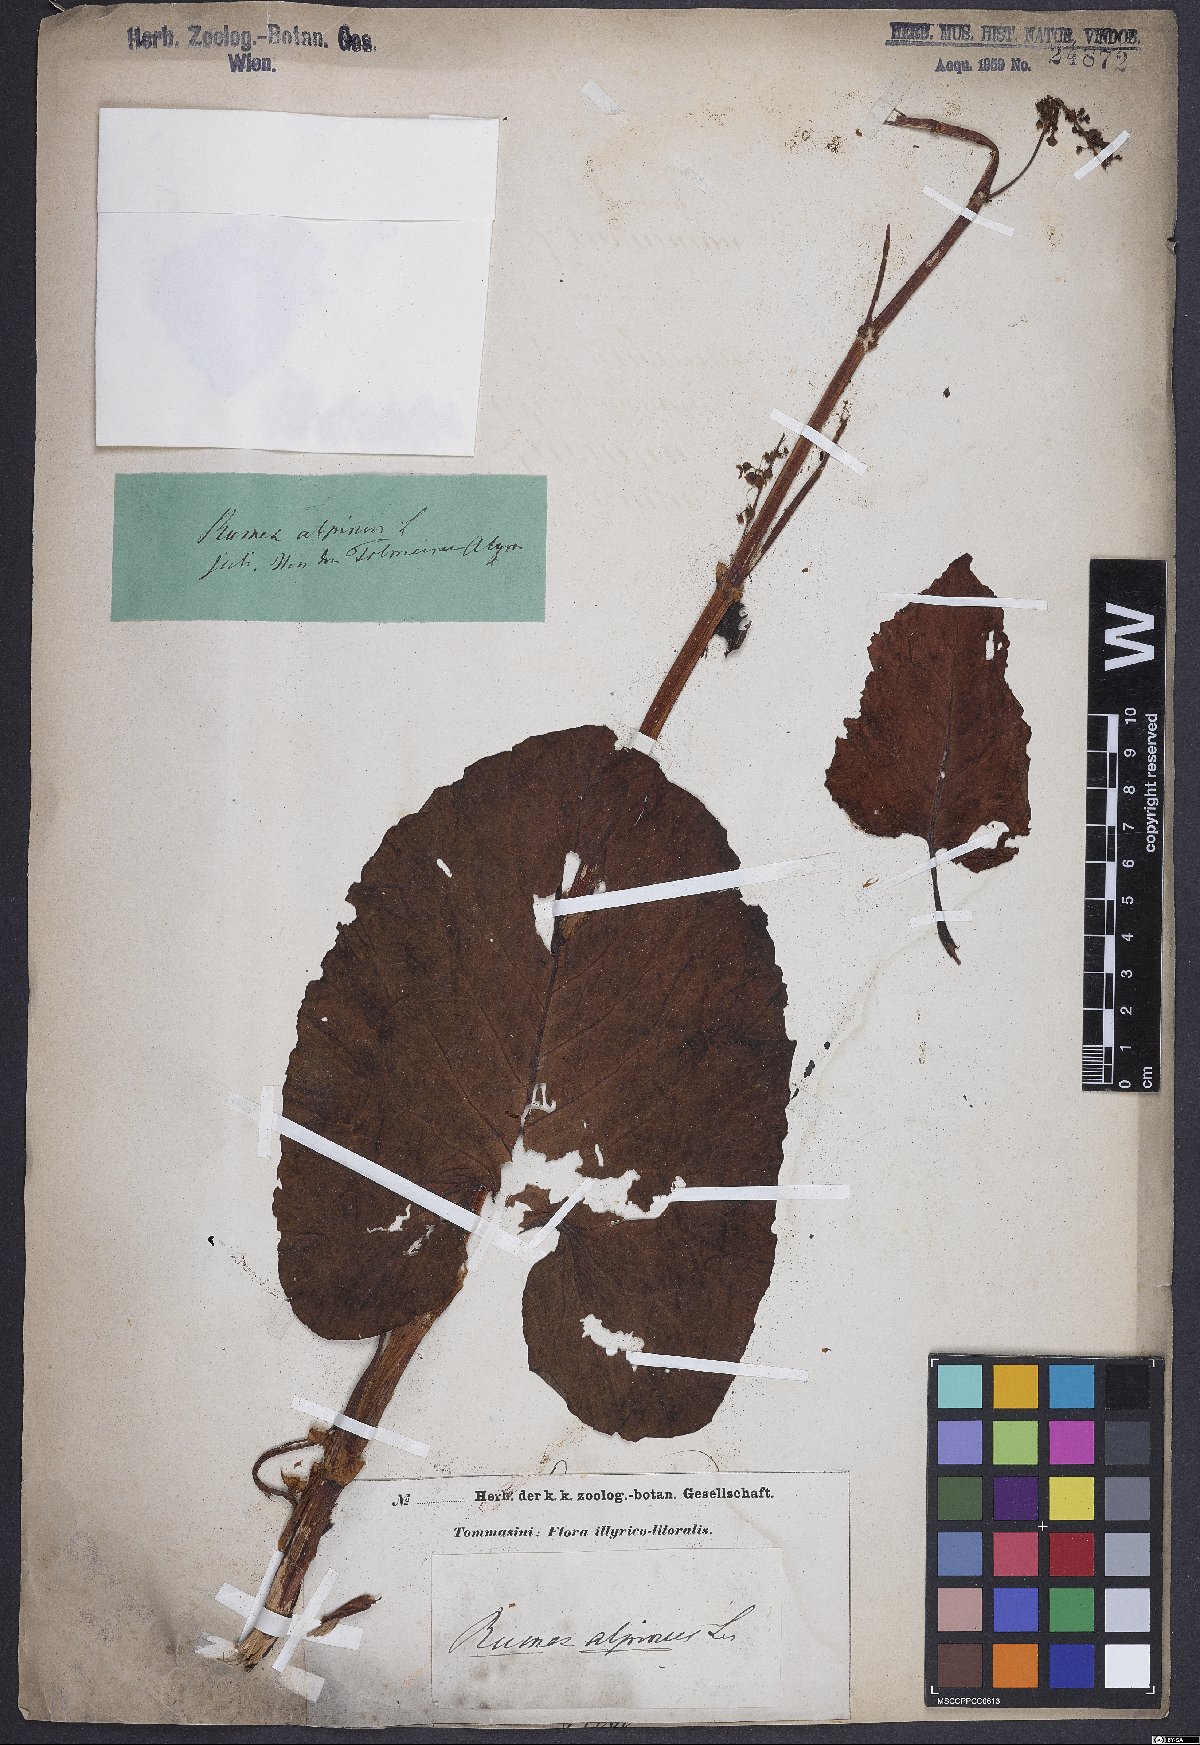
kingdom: Plantae
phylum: Tracheophyta
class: Magnoliopsida
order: Caryophyllales
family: Polygonaceae
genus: Rumex
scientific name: Rumex alpinus
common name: Alpine dock
